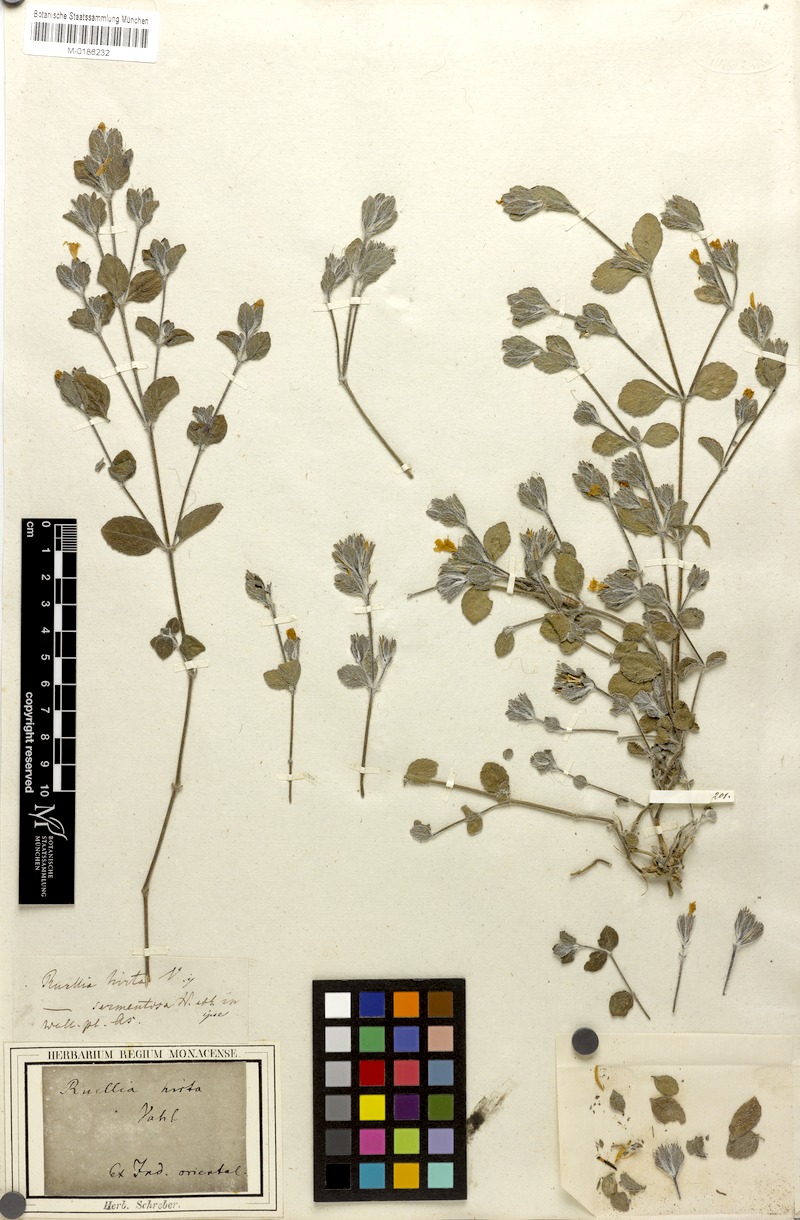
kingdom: Plantae
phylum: Tracheophyta
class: Magnoliopsida
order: Lamiales
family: Acanthaceae
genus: Strobilanthes
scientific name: Strobilanthes hirta
